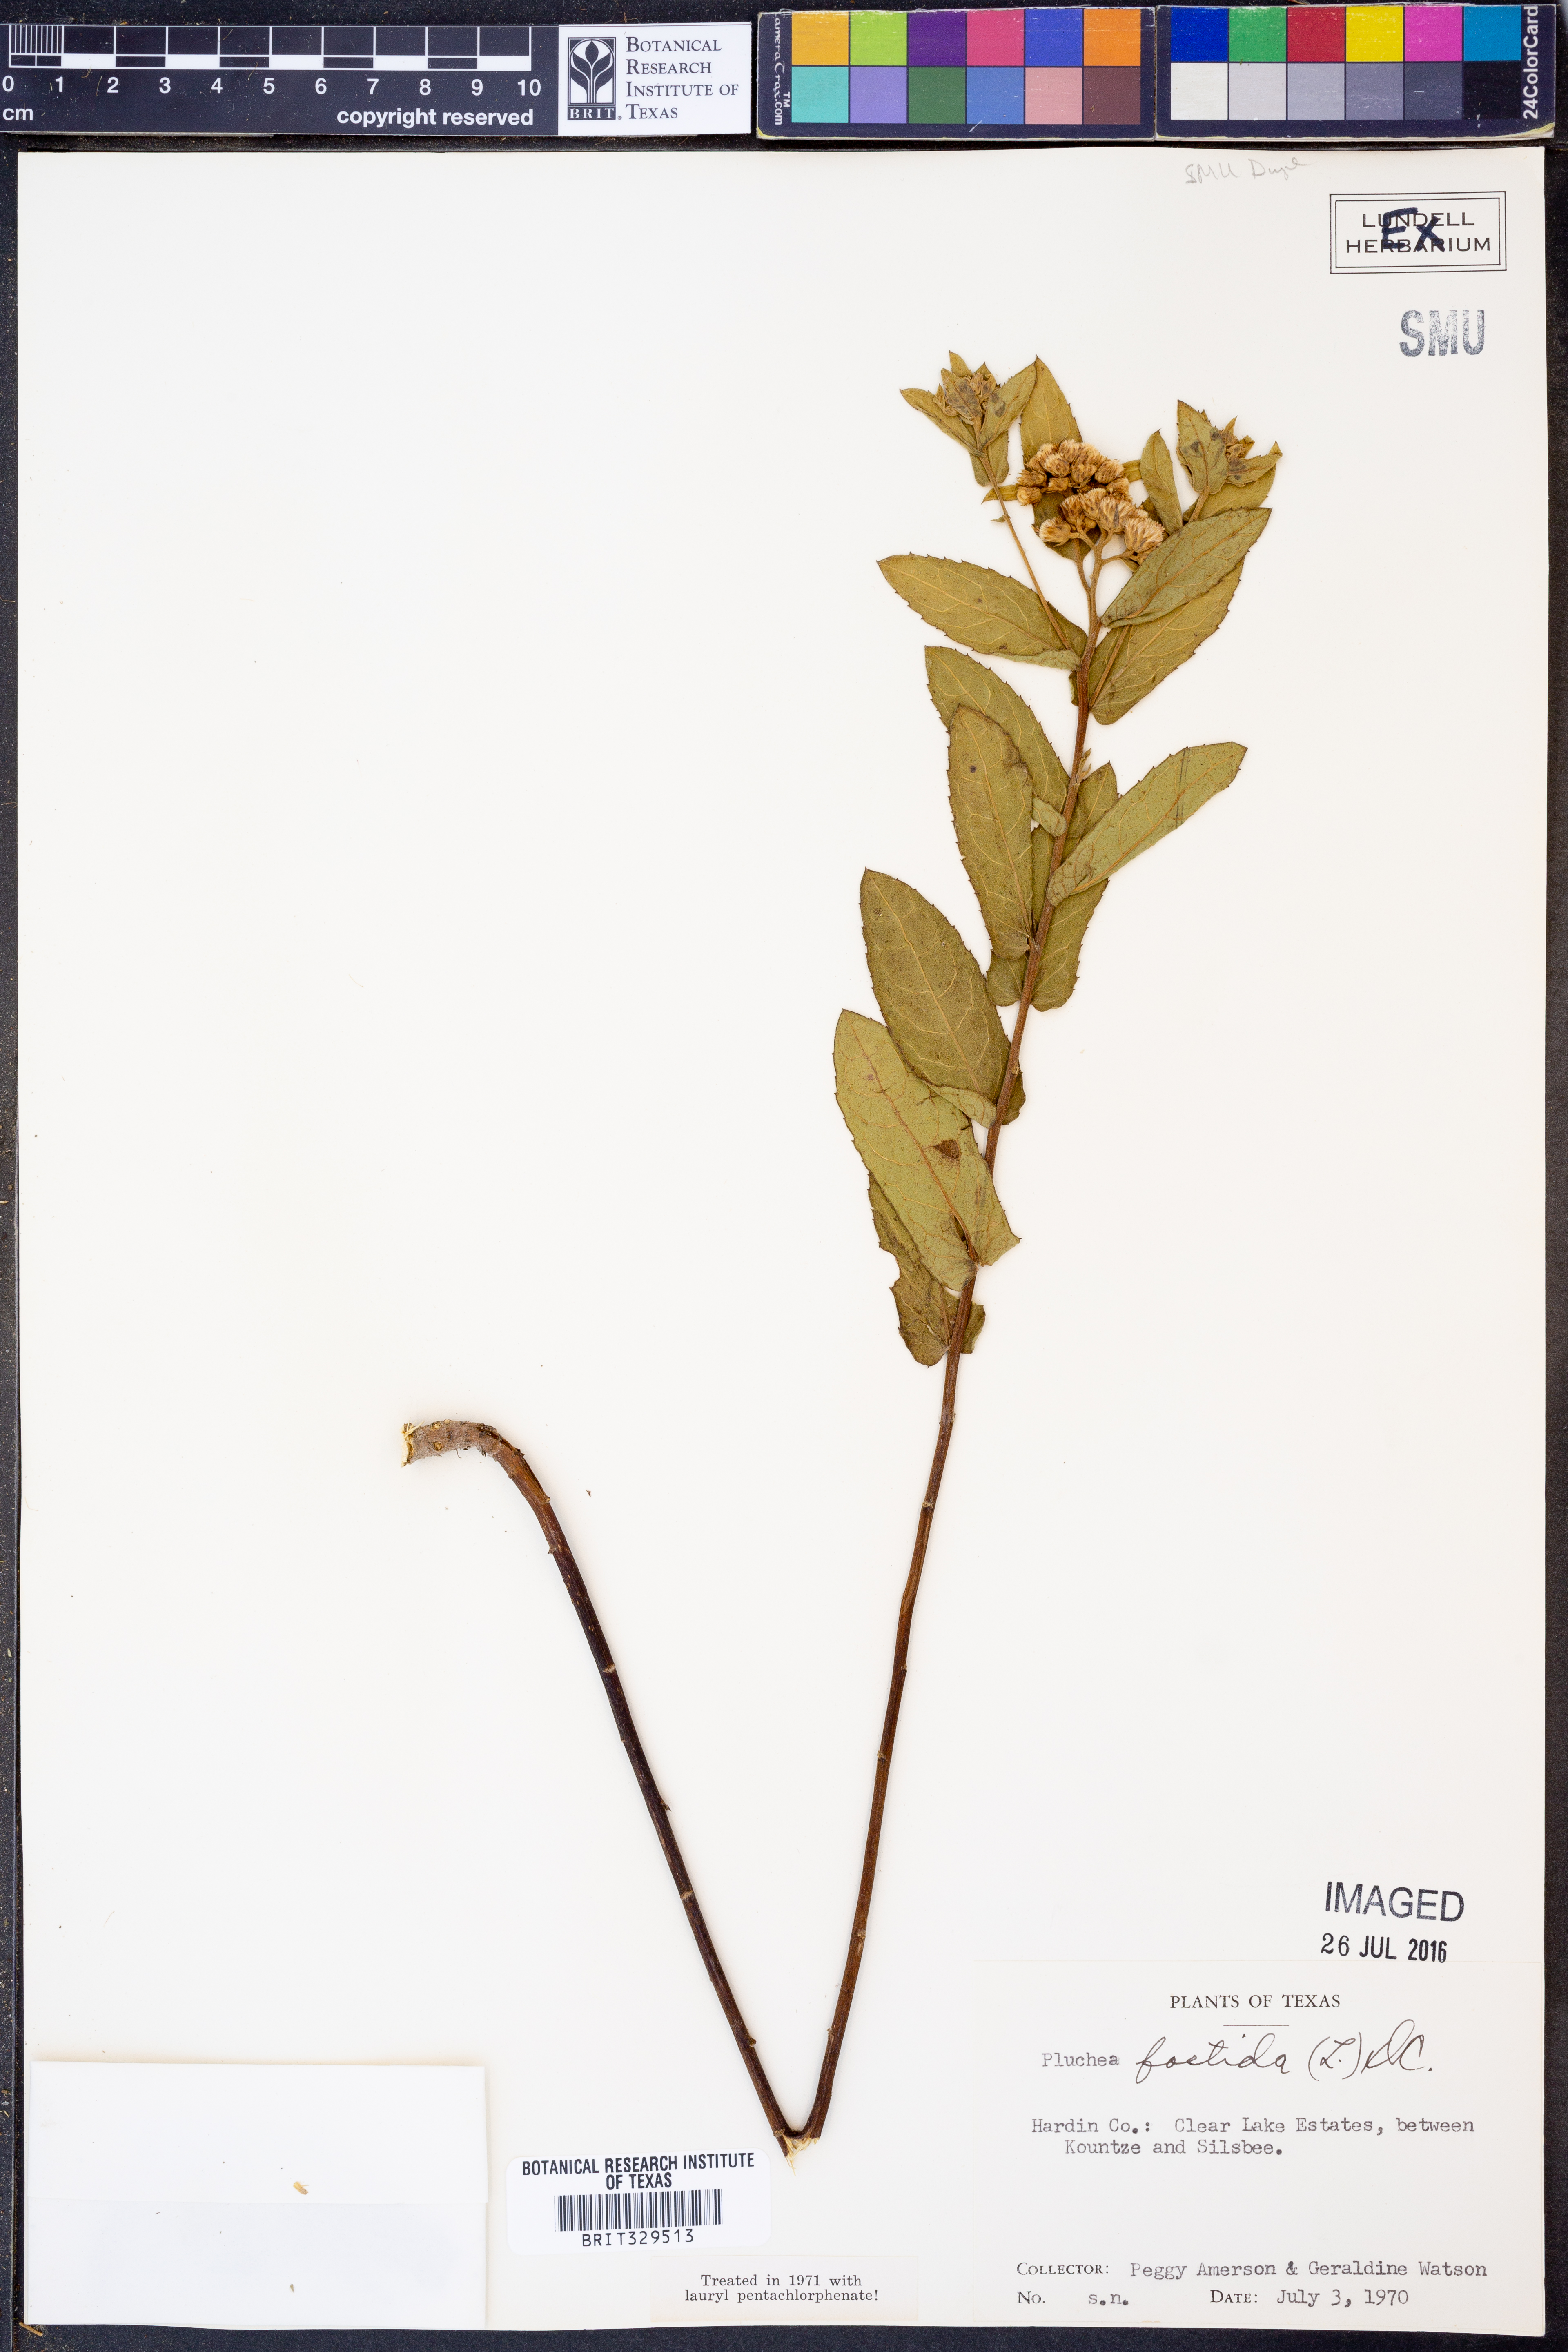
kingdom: Plantae
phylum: Tracheophyta
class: Magnoliopsida
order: Asterales
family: Asteraceae
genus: Pluchea
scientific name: Pluchea foetida
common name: Stinking camphorweed
